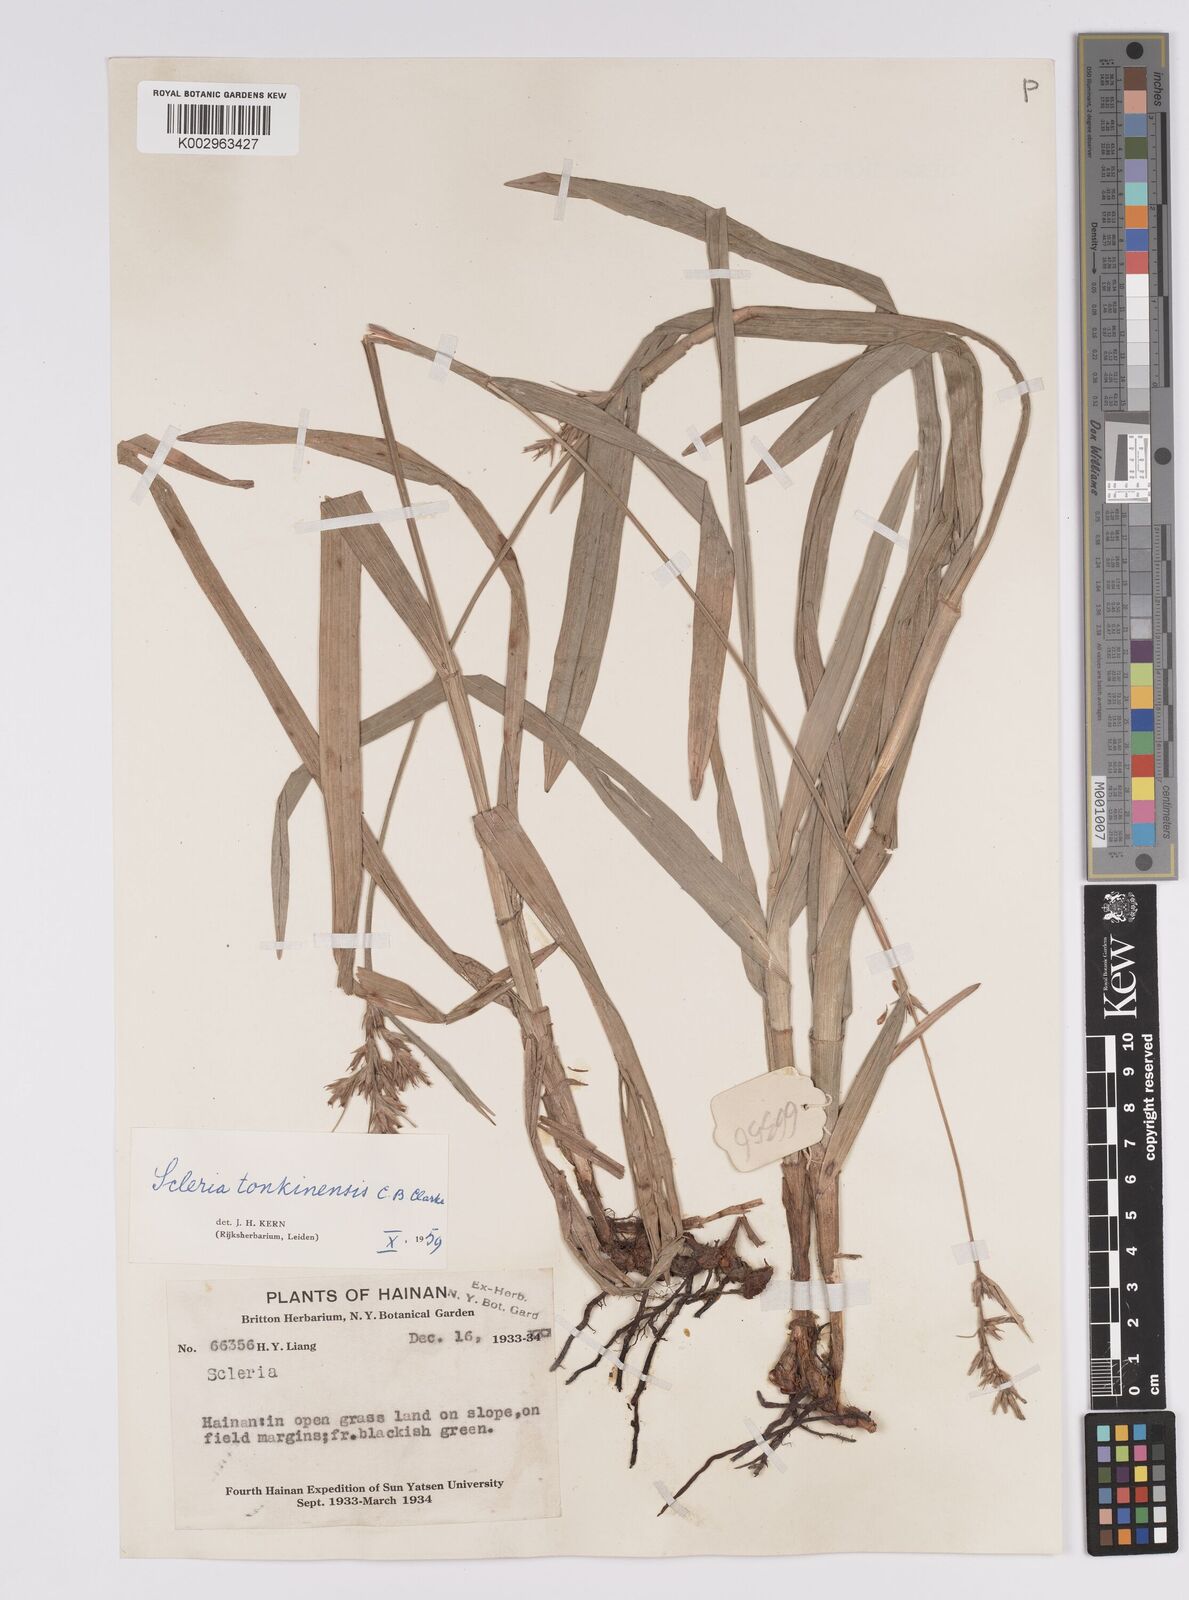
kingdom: Plantae
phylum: Tracheophyta
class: Liliopsida
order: Poales
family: Cyperaceae
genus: Scleria
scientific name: Scleria tonkinensis
